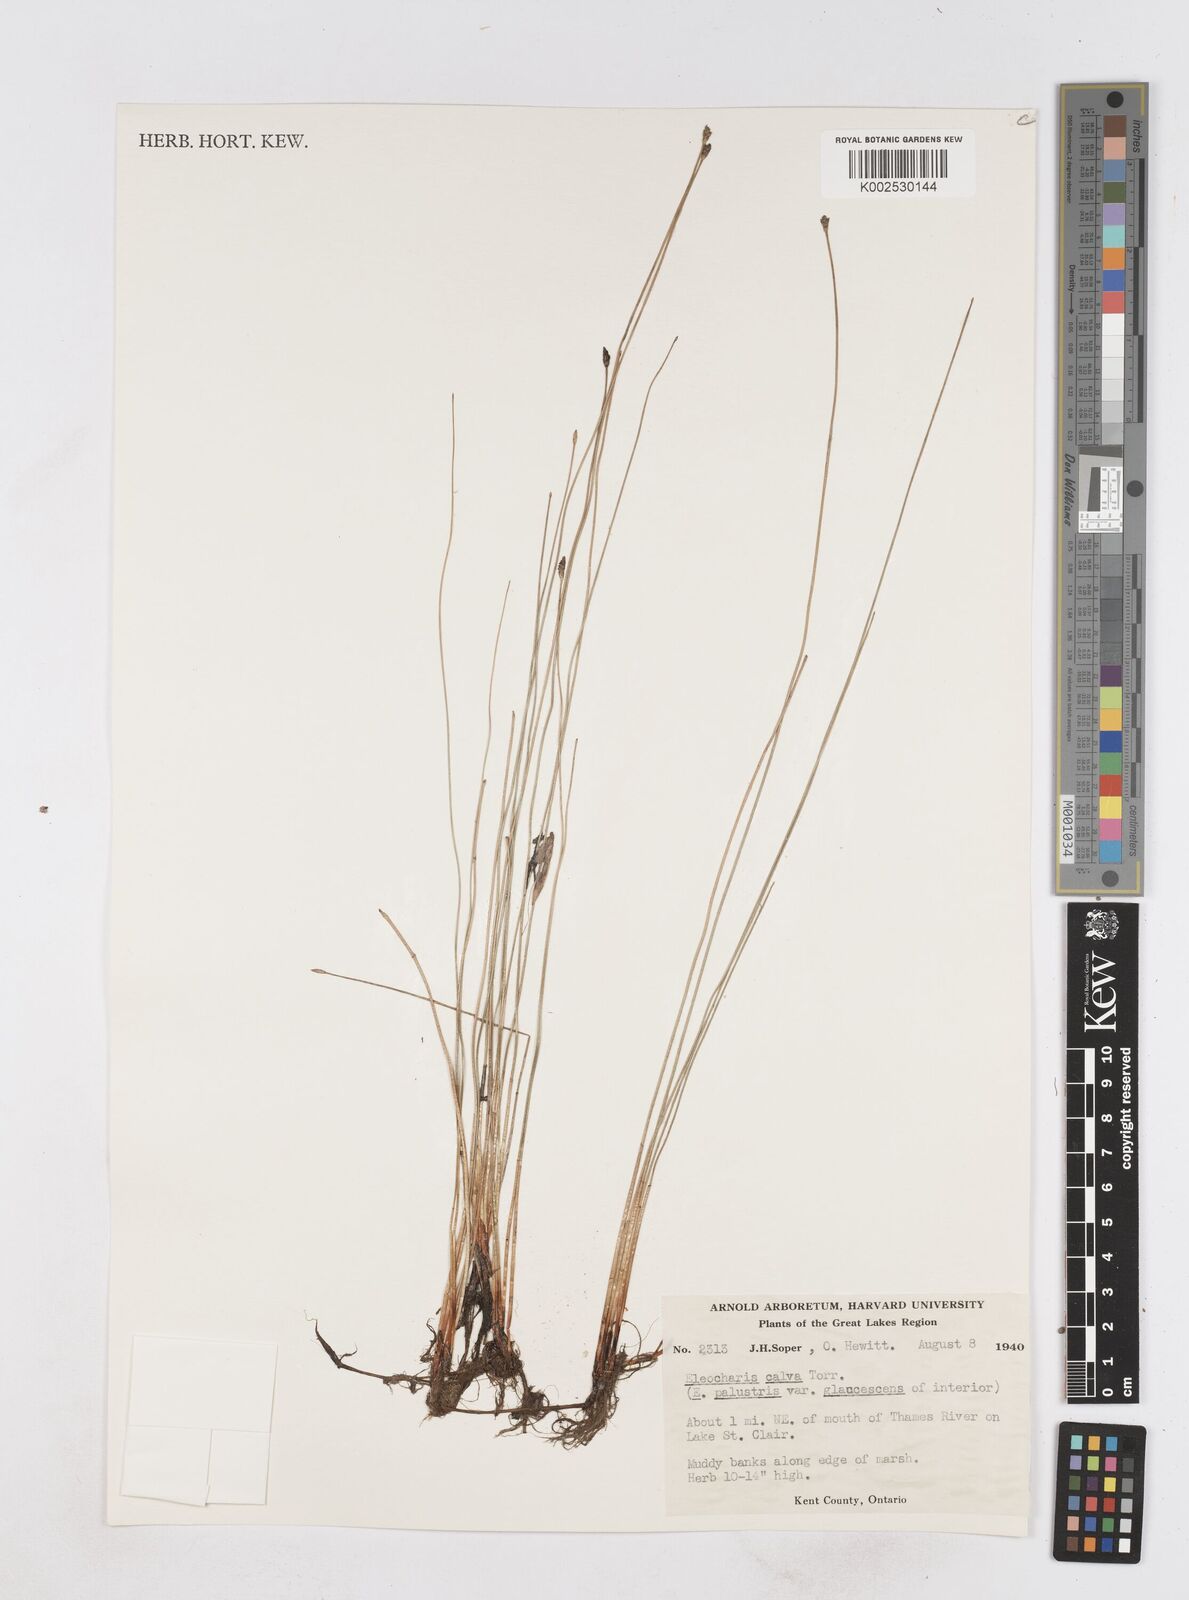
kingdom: Plantae
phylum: Tracheophyta
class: Liliopsida
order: Poales
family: Cyperaceae
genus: Eleocharis
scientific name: Eleocharis erythropoda
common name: Bald spikerush
